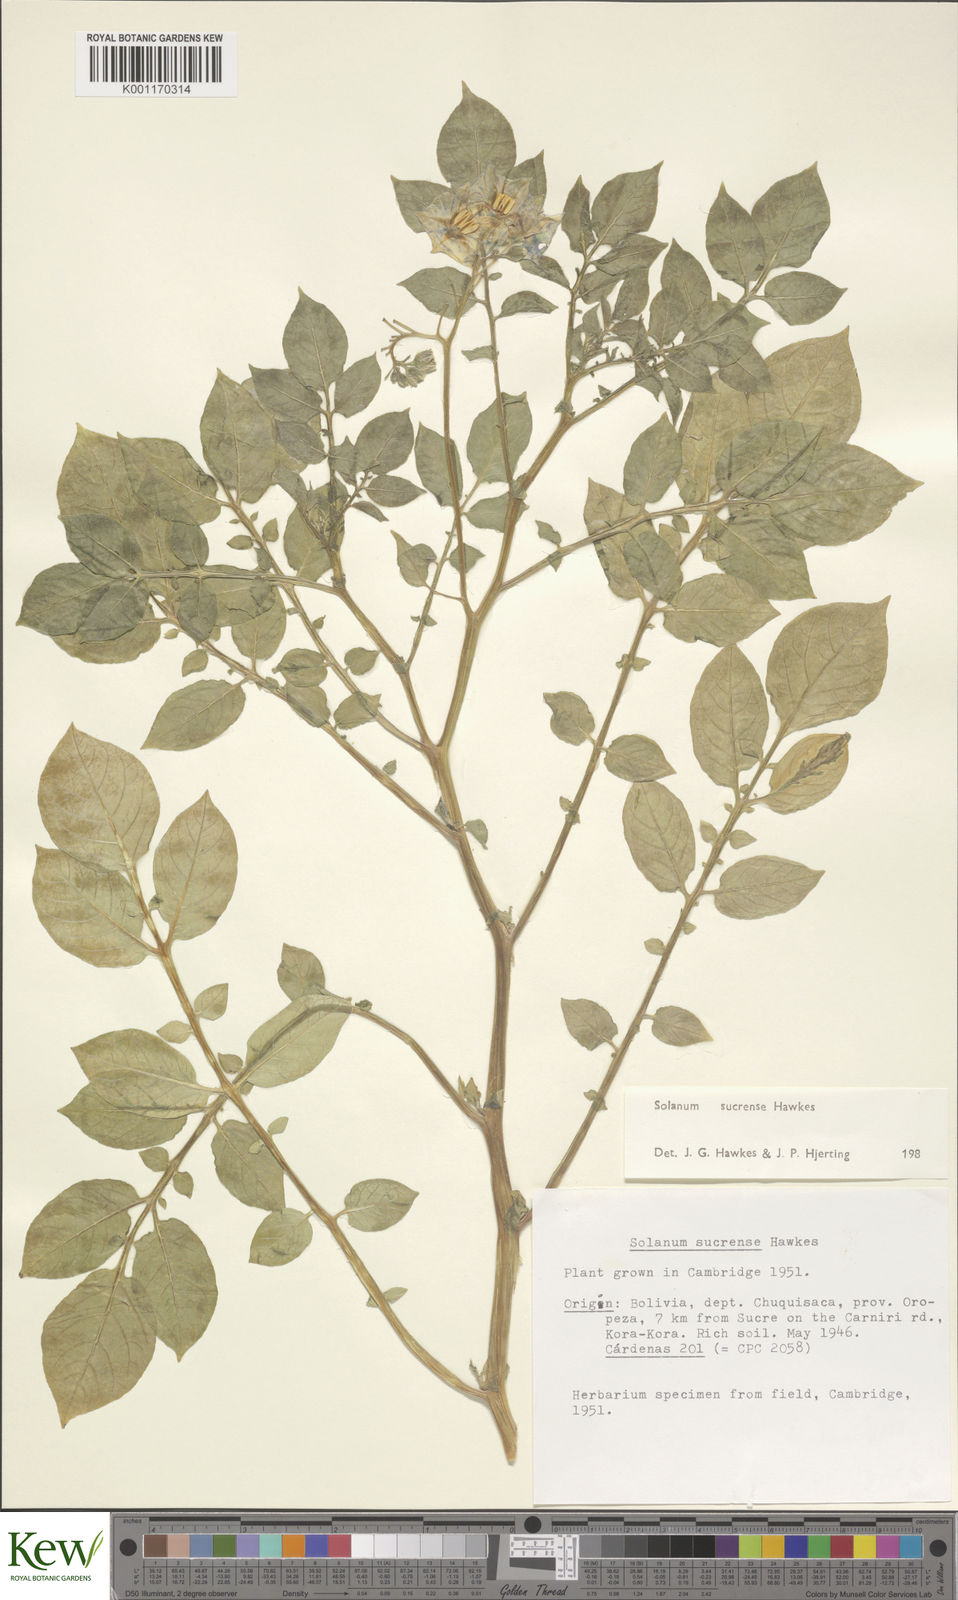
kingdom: Plantae
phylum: Tracheophyta
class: Magnoliopsida
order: Solanales
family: Solanaceae
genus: Solanum
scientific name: Solanum brevicaule
